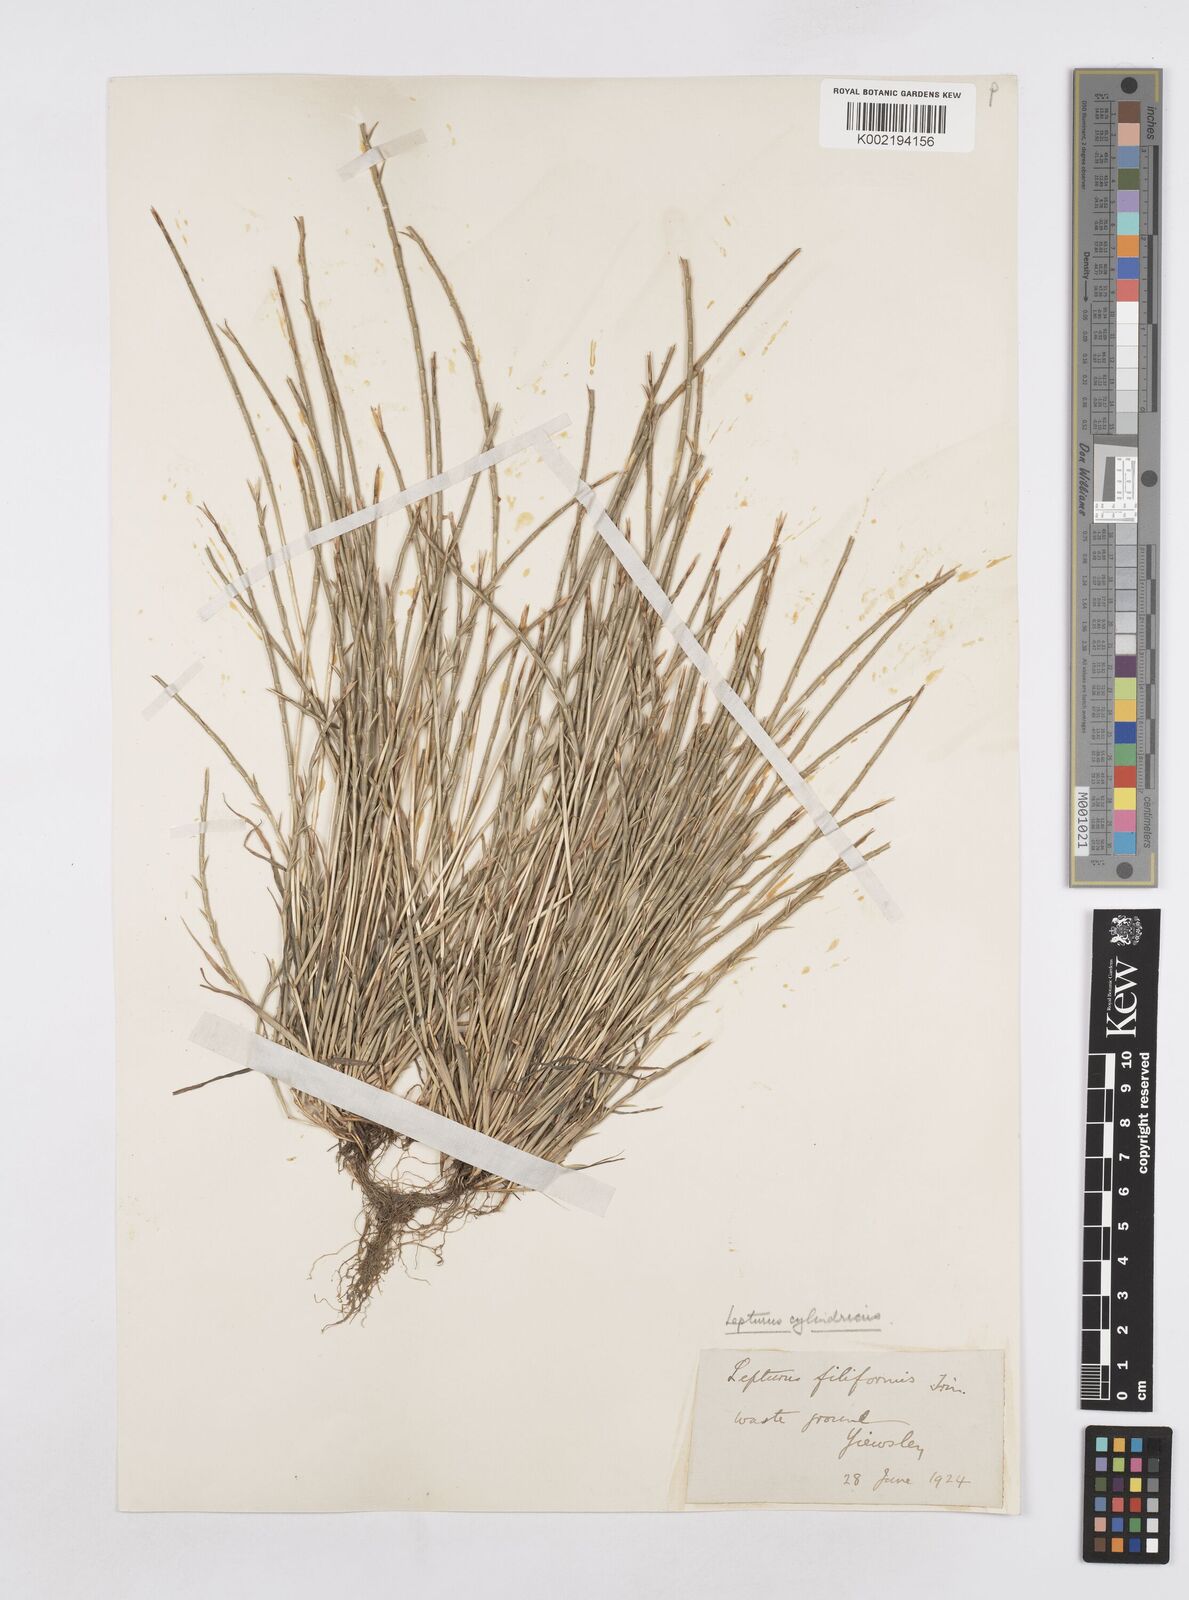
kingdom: Plantae
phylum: Tracheophyta
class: Liliopsida
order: Poales
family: Poaceae
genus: Parapholis
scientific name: Parapholis cylindrica
